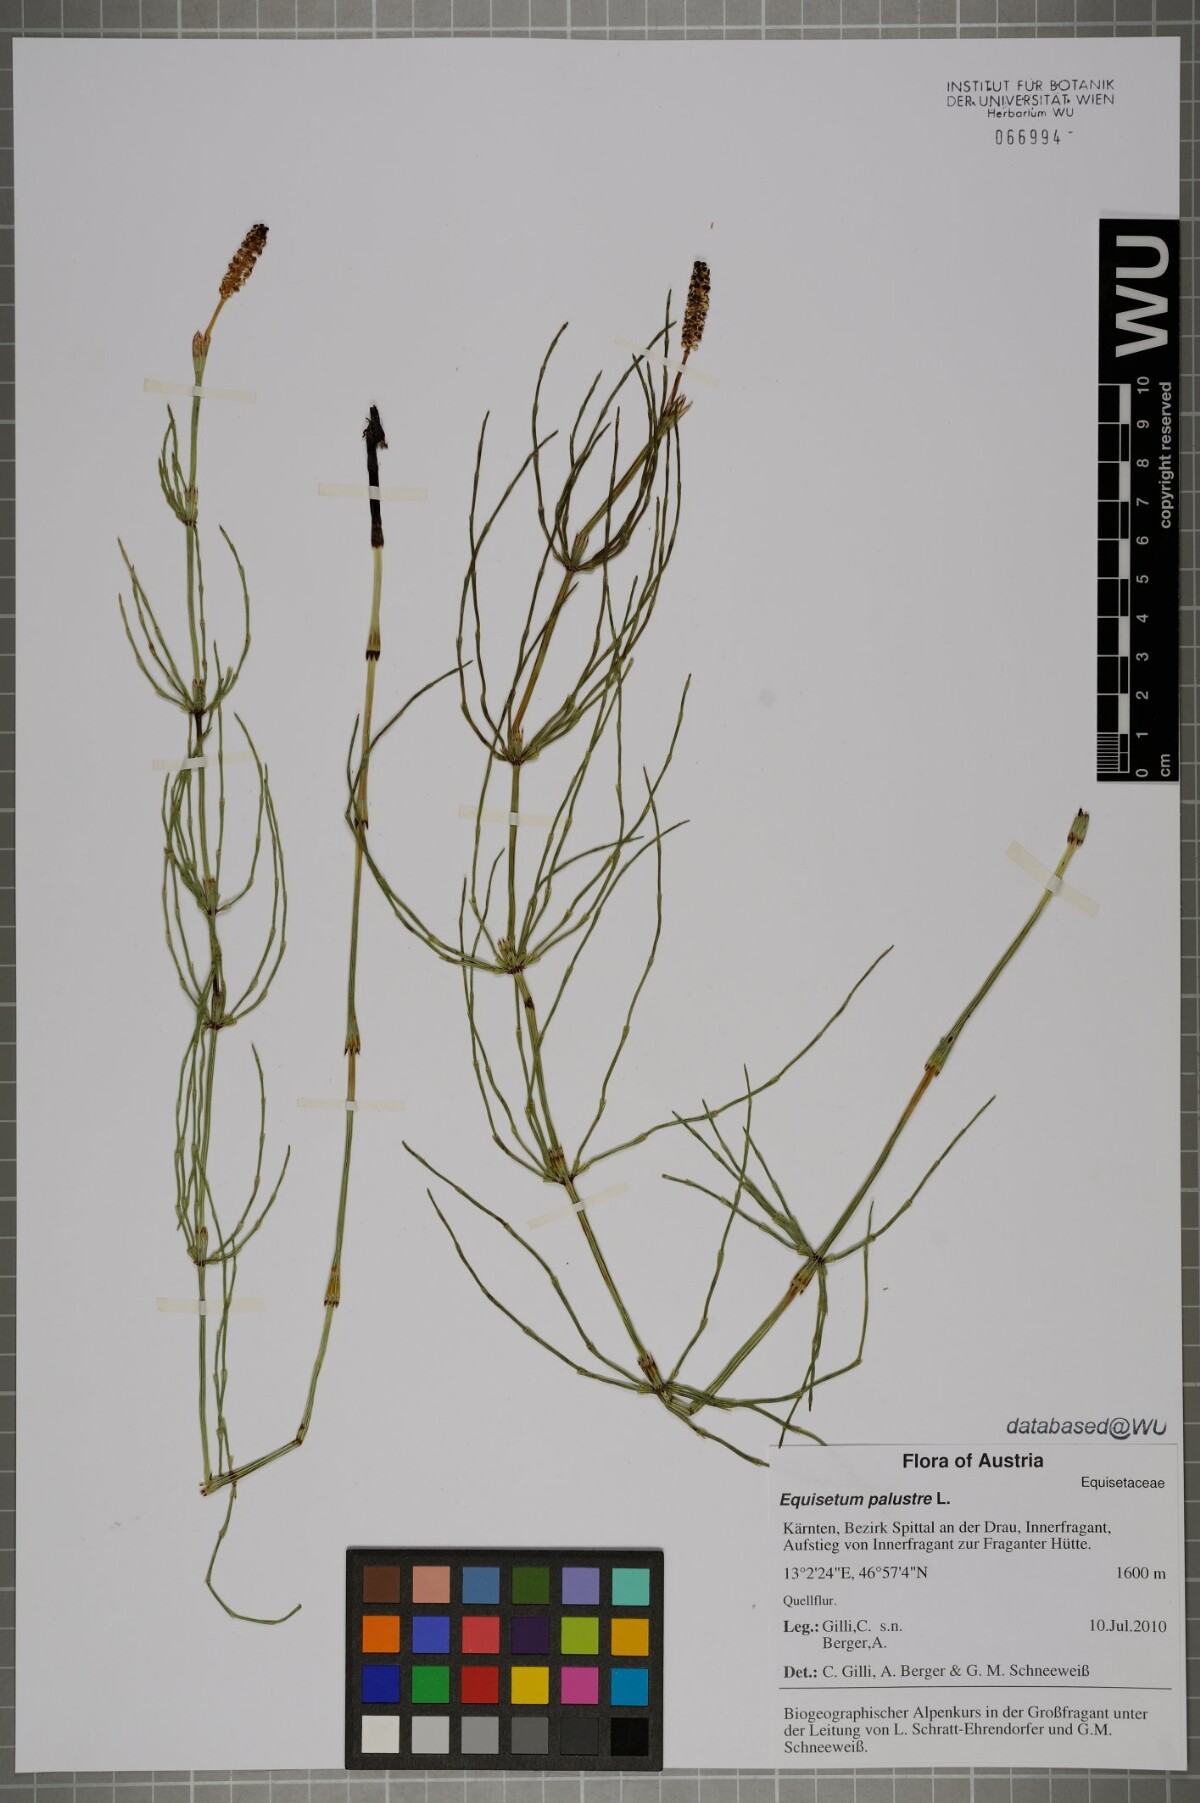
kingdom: Plantae
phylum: Tracheophyta
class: Polypodiopsida
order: Equisetales
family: Equisetaceae
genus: Equisetum
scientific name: Equisetum palustre
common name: Marsh horsetail
